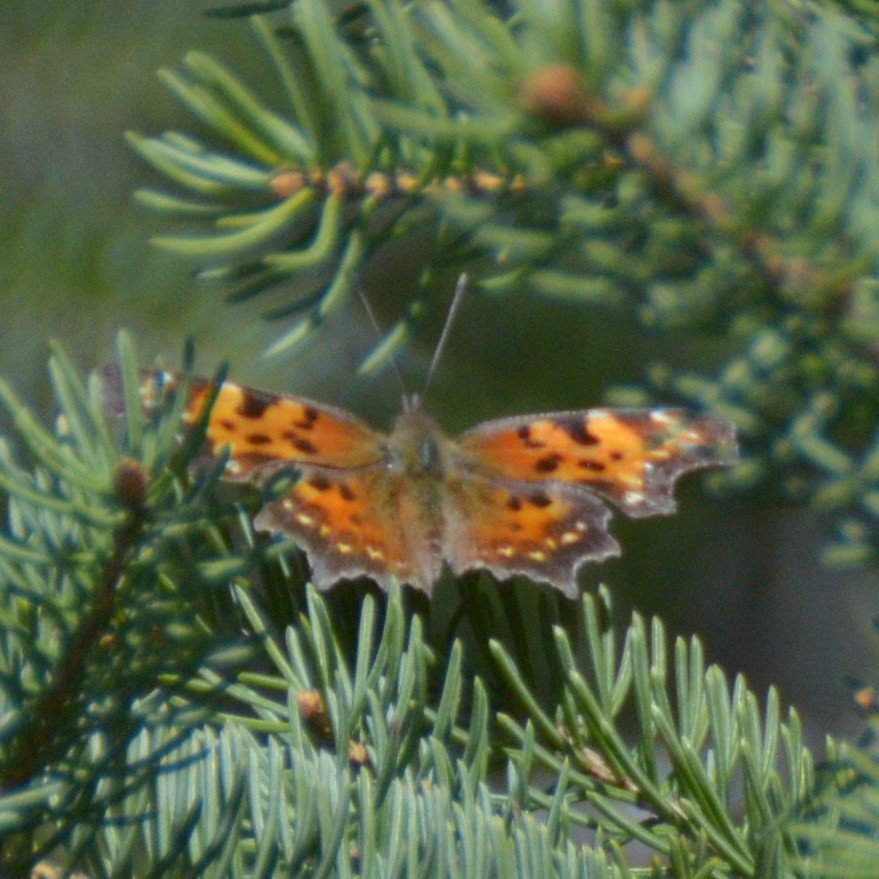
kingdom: Animalia
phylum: Arthropoda
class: Insecta
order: Lepidoptera
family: Nymphalidae
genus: Polygonia
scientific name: Polygonia faunus
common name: Green Comma
